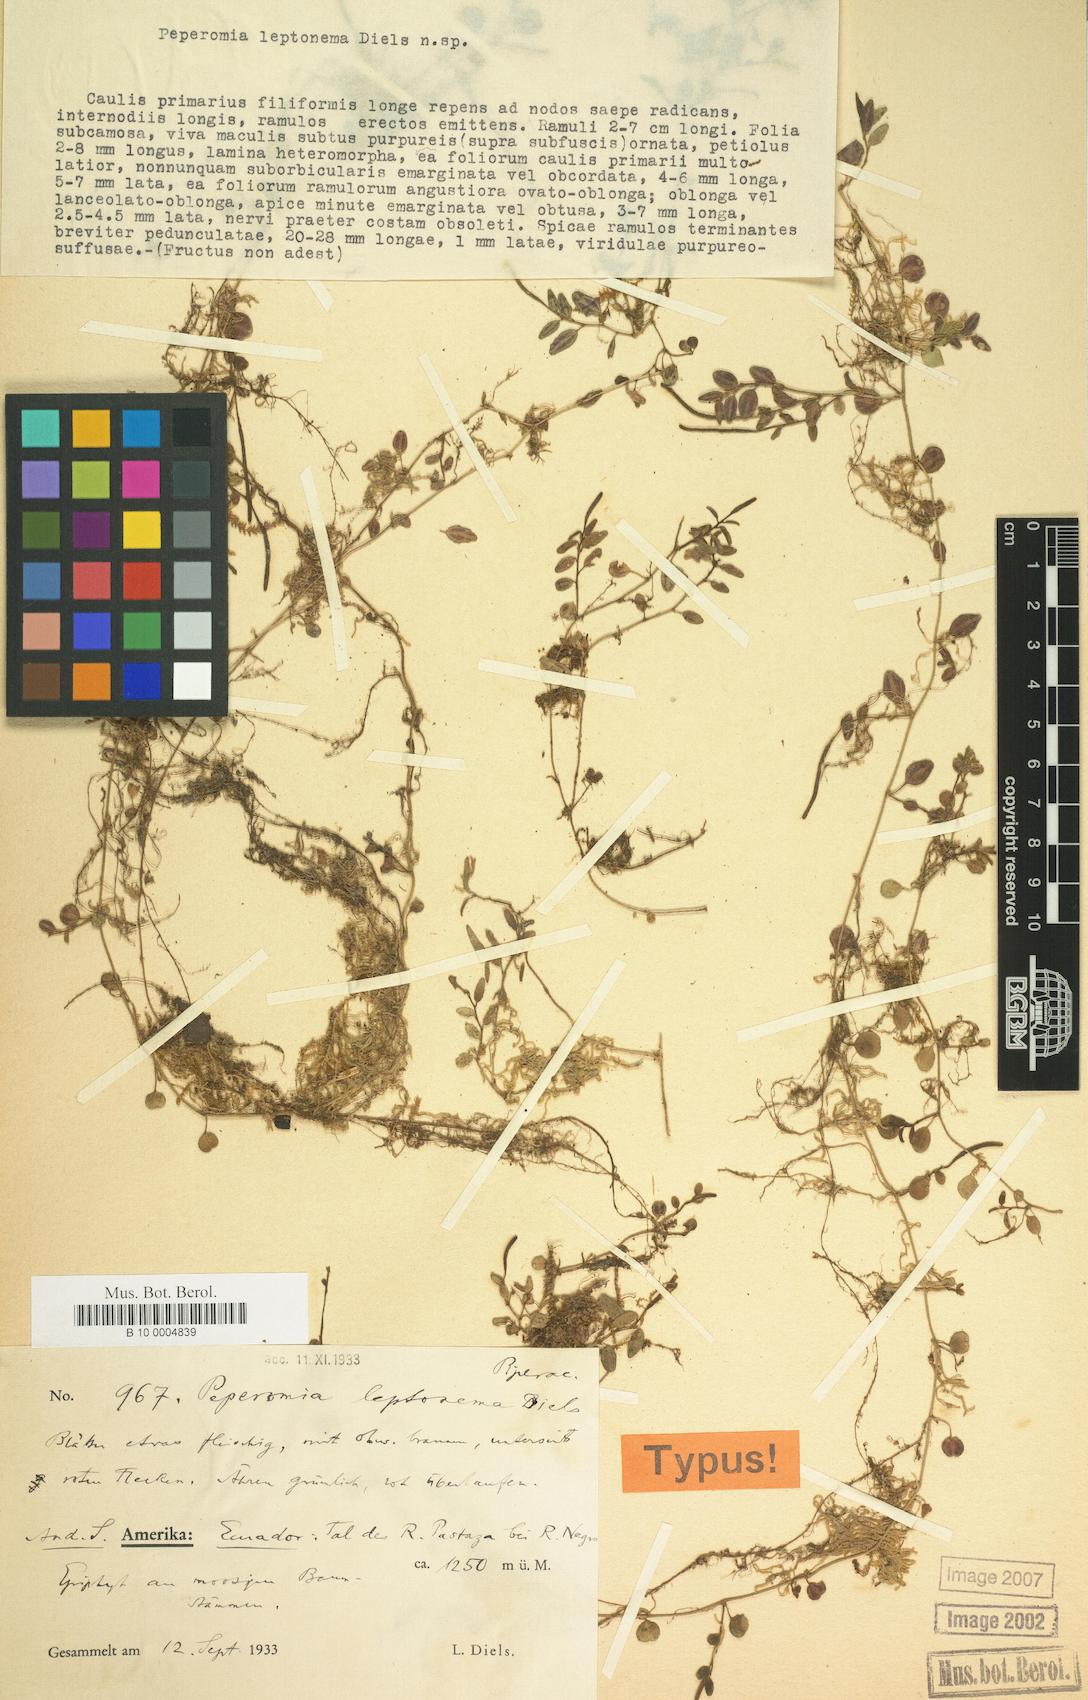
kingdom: Plantae
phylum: Tracheophyta
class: Magnoliopsida
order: Piperales
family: Piperaceae
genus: Peperomia
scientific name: Peperomia jamesoniana
